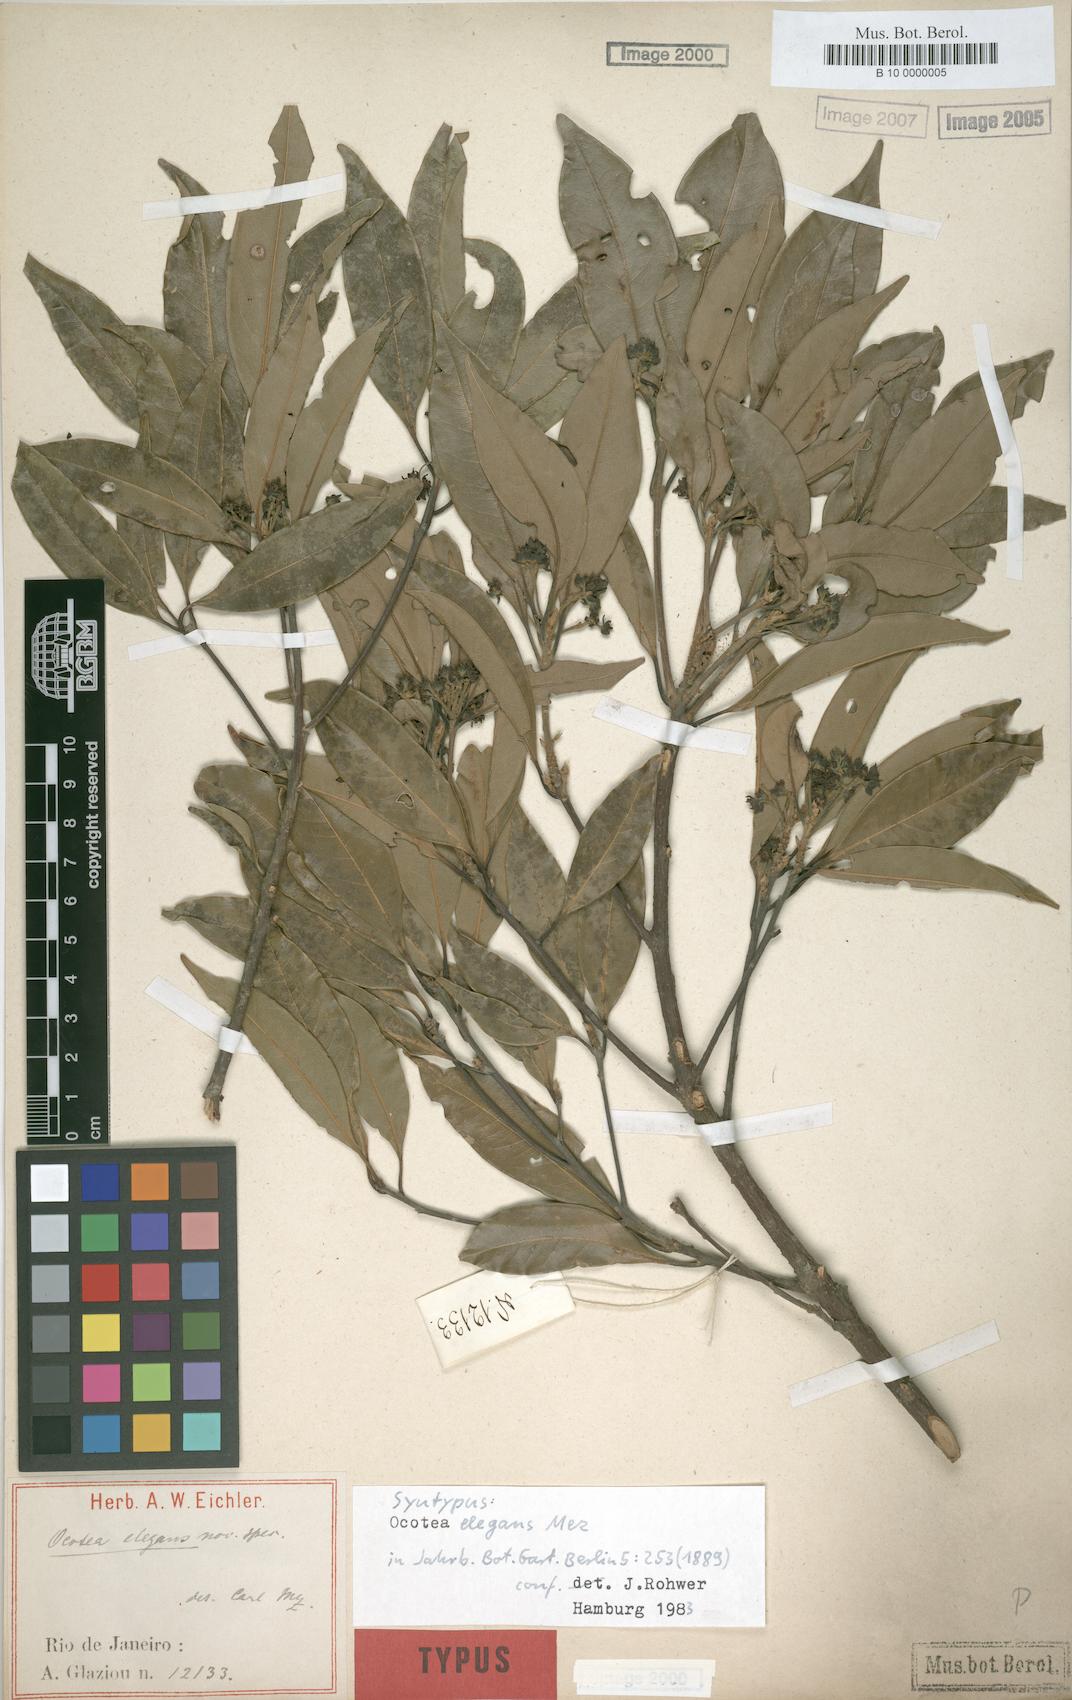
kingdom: Plantae
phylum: Tracheophyta
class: Magnoliopsida
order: Laurales
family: Lauraceae
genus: Ocotea
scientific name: Ocotea elegans
